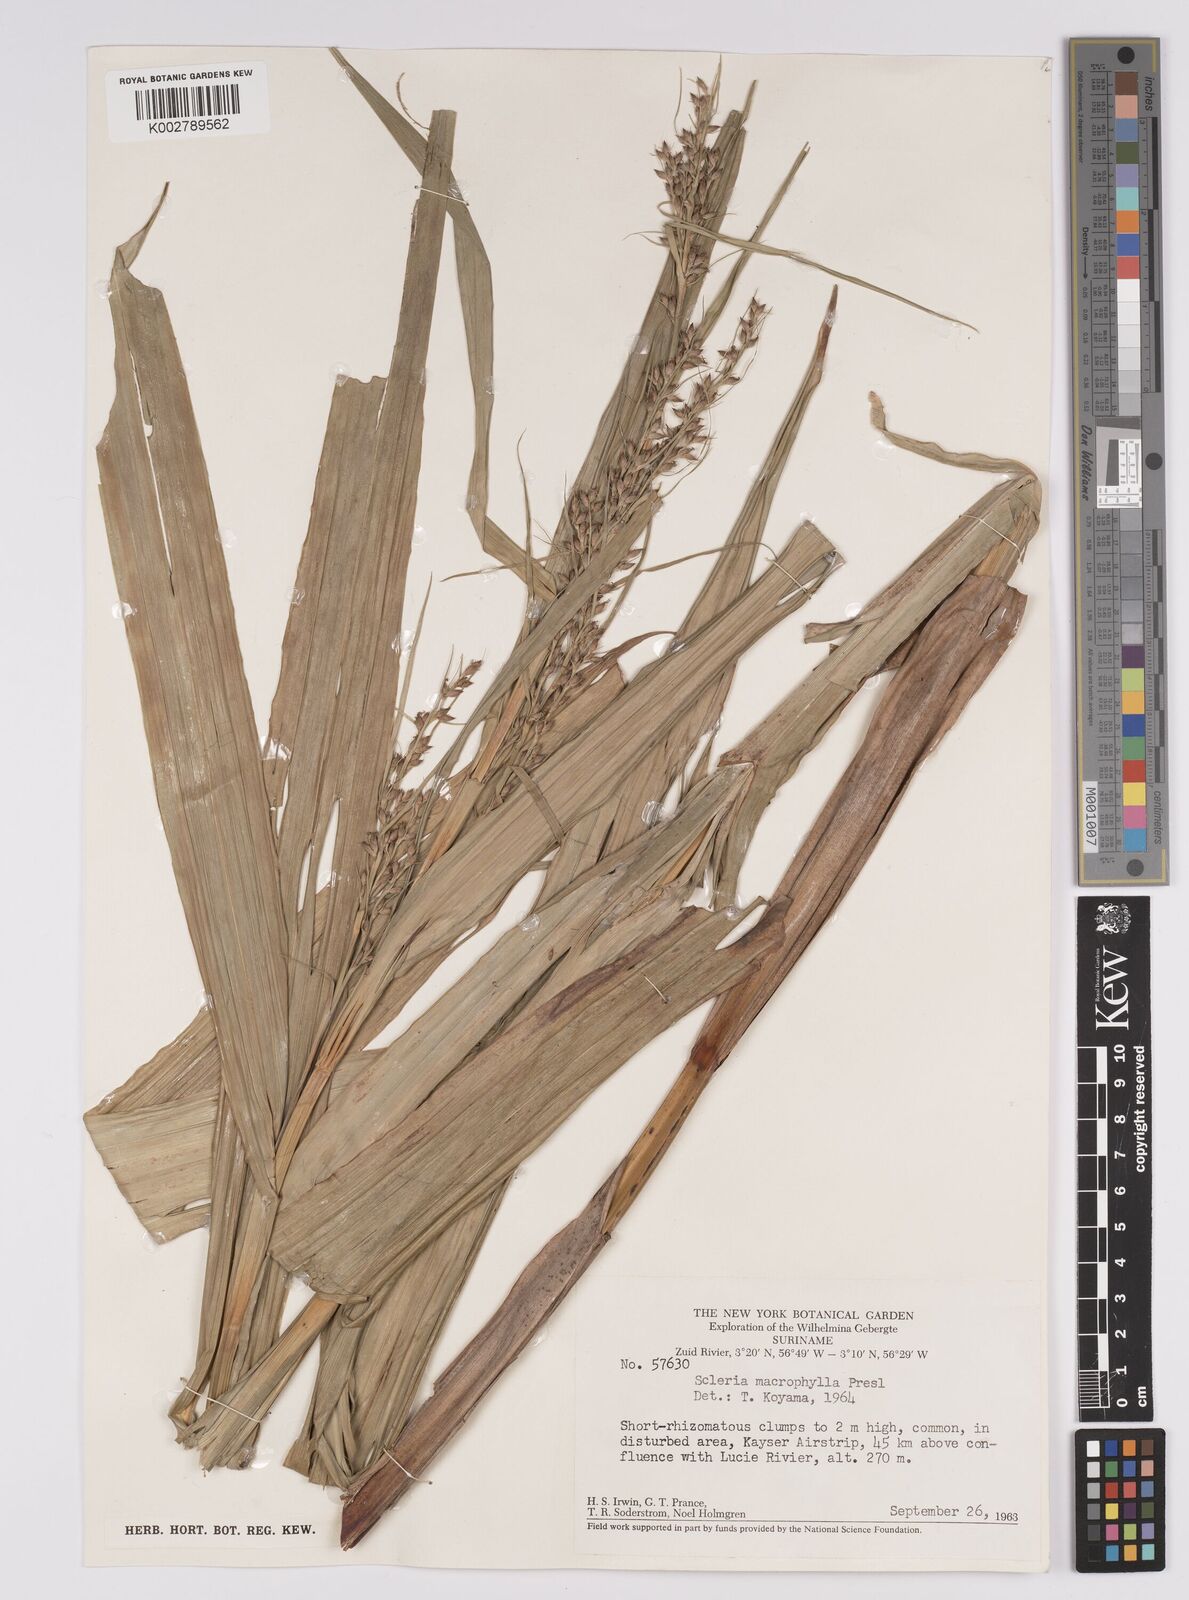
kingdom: Plantae
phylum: Tracheophyta
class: Liliopsida
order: Poales
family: Cyperaceae
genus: Scleria
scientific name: Scleria ciliaris
